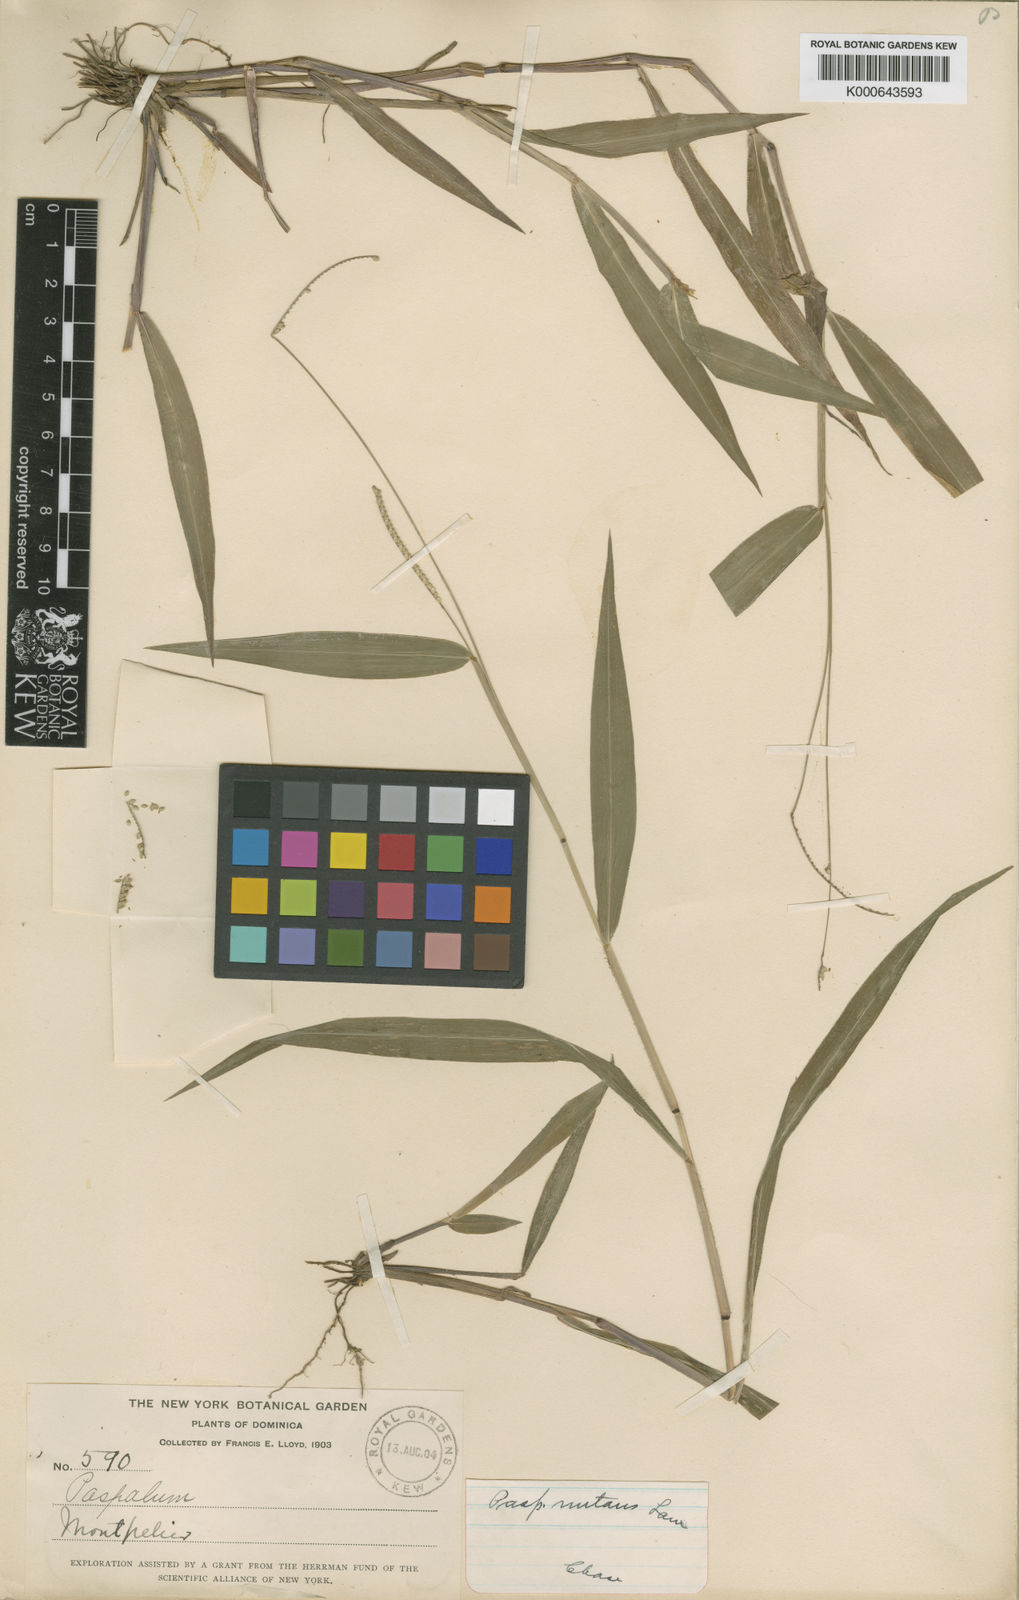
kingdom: Plantae
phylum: Tracheophyta
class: Liliopsida
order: Poales
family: Poaceae
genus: Paspalum
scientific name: Paspalum nutans
